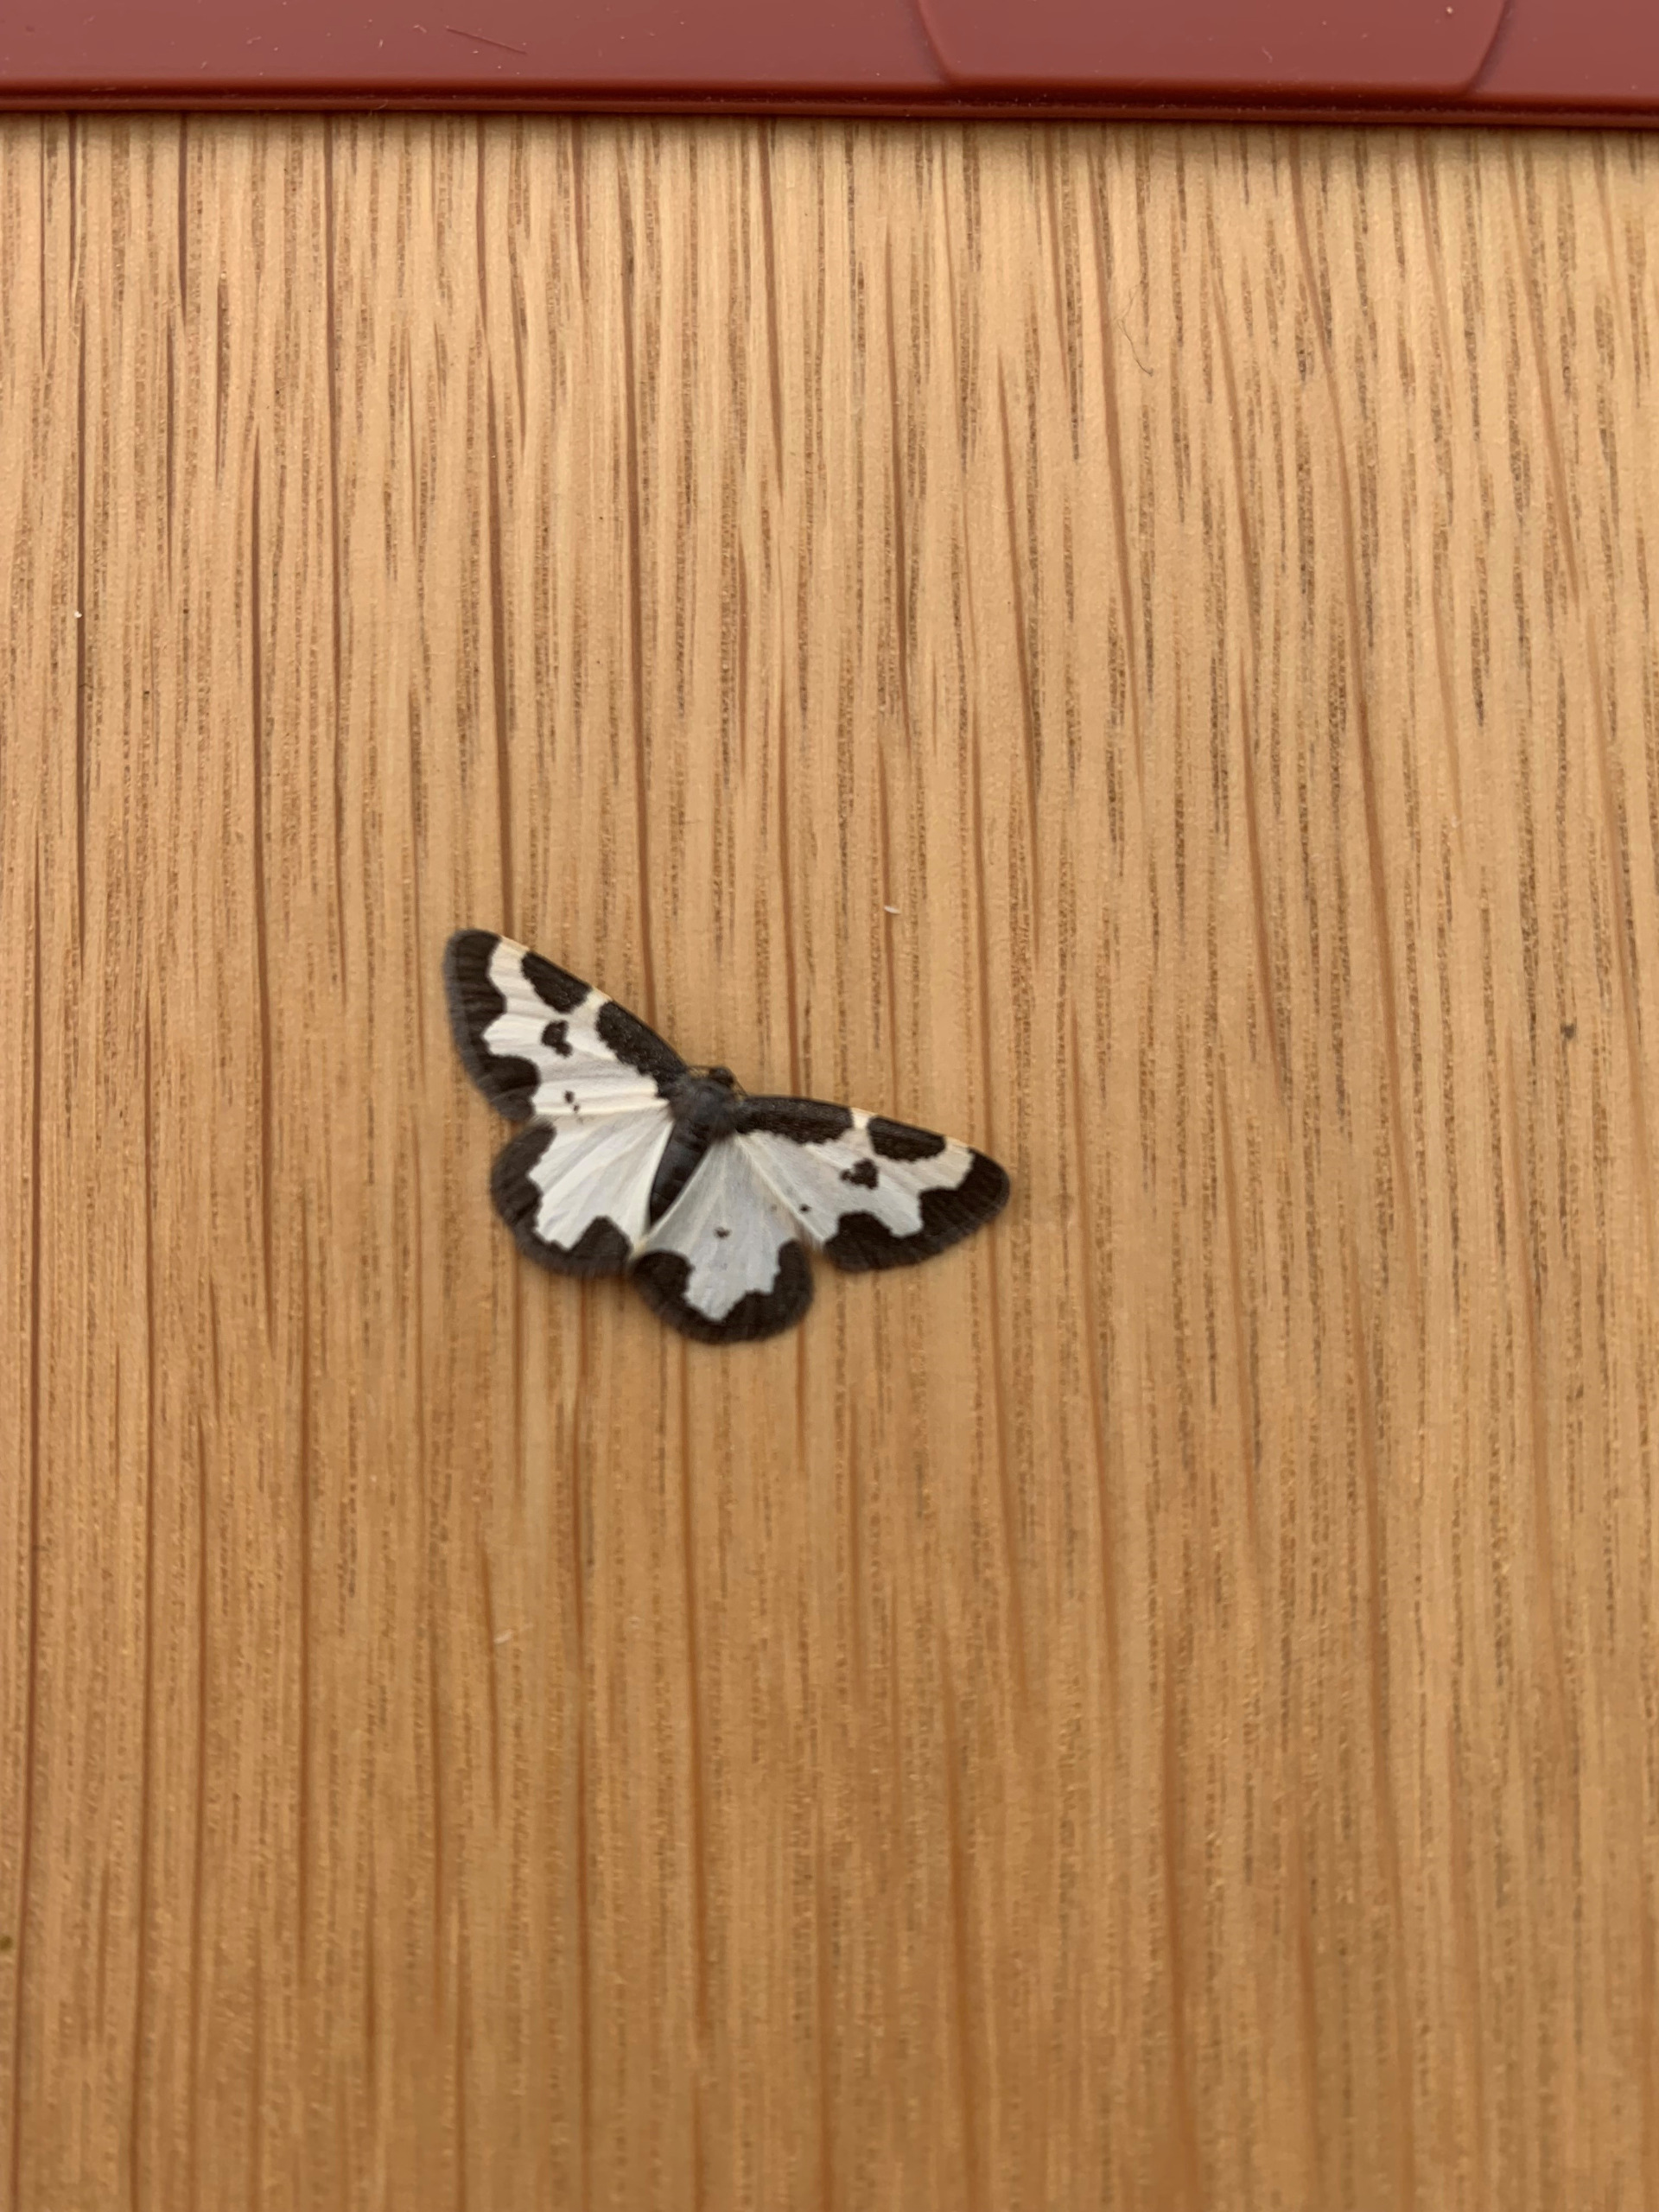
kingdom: Animalia
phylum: Arthropoda
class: Insecta
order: Lepidoptera
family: Geometridae
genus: Lomaspilis
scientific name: Lomaspilis marginata
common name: Sortrandet måler
